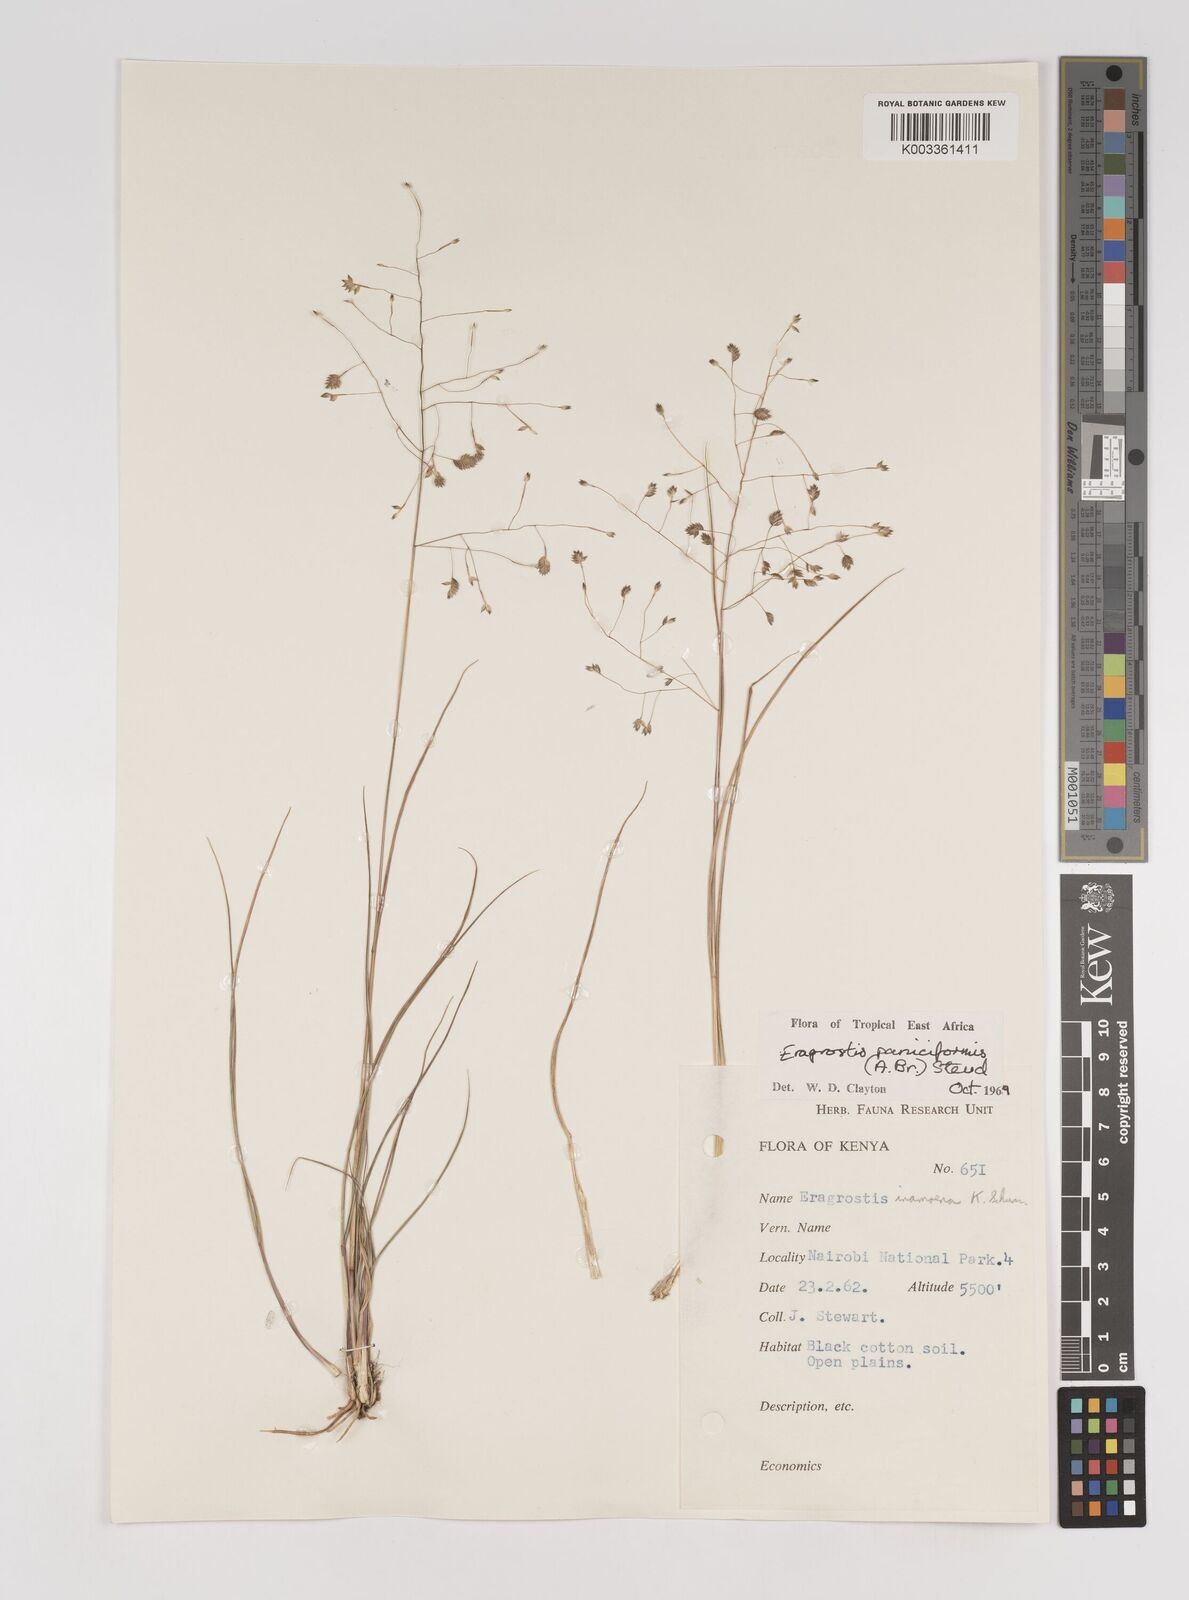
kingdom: Plantae
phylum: Tracheophyta
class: Liliopsida
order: Poales
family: Poaceae
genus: Eragrostis
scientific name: Eragrostis paniciformis
